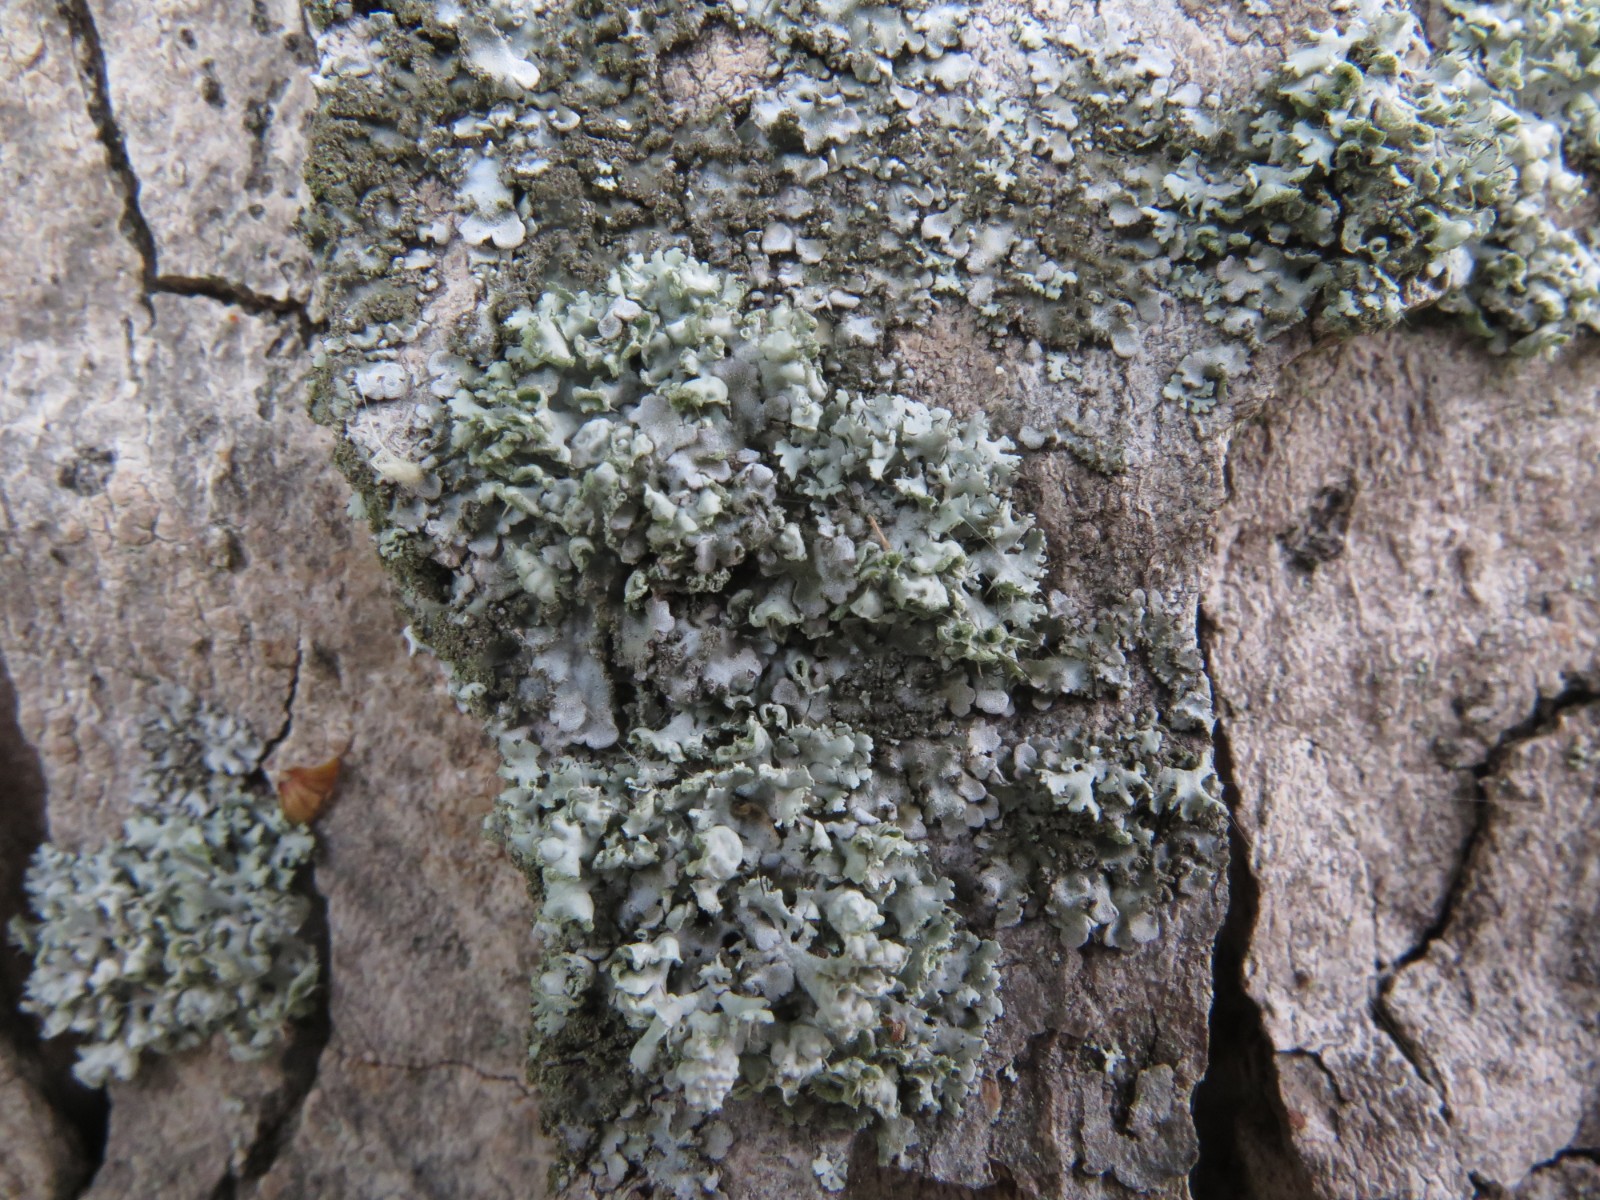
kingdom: Fungi
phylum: Ascomycota
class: Lecanoromycetes
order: Caliciales
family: Physciaceae
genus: Physcia
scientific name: Physcia adscendens
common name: hætte-rosetlav
